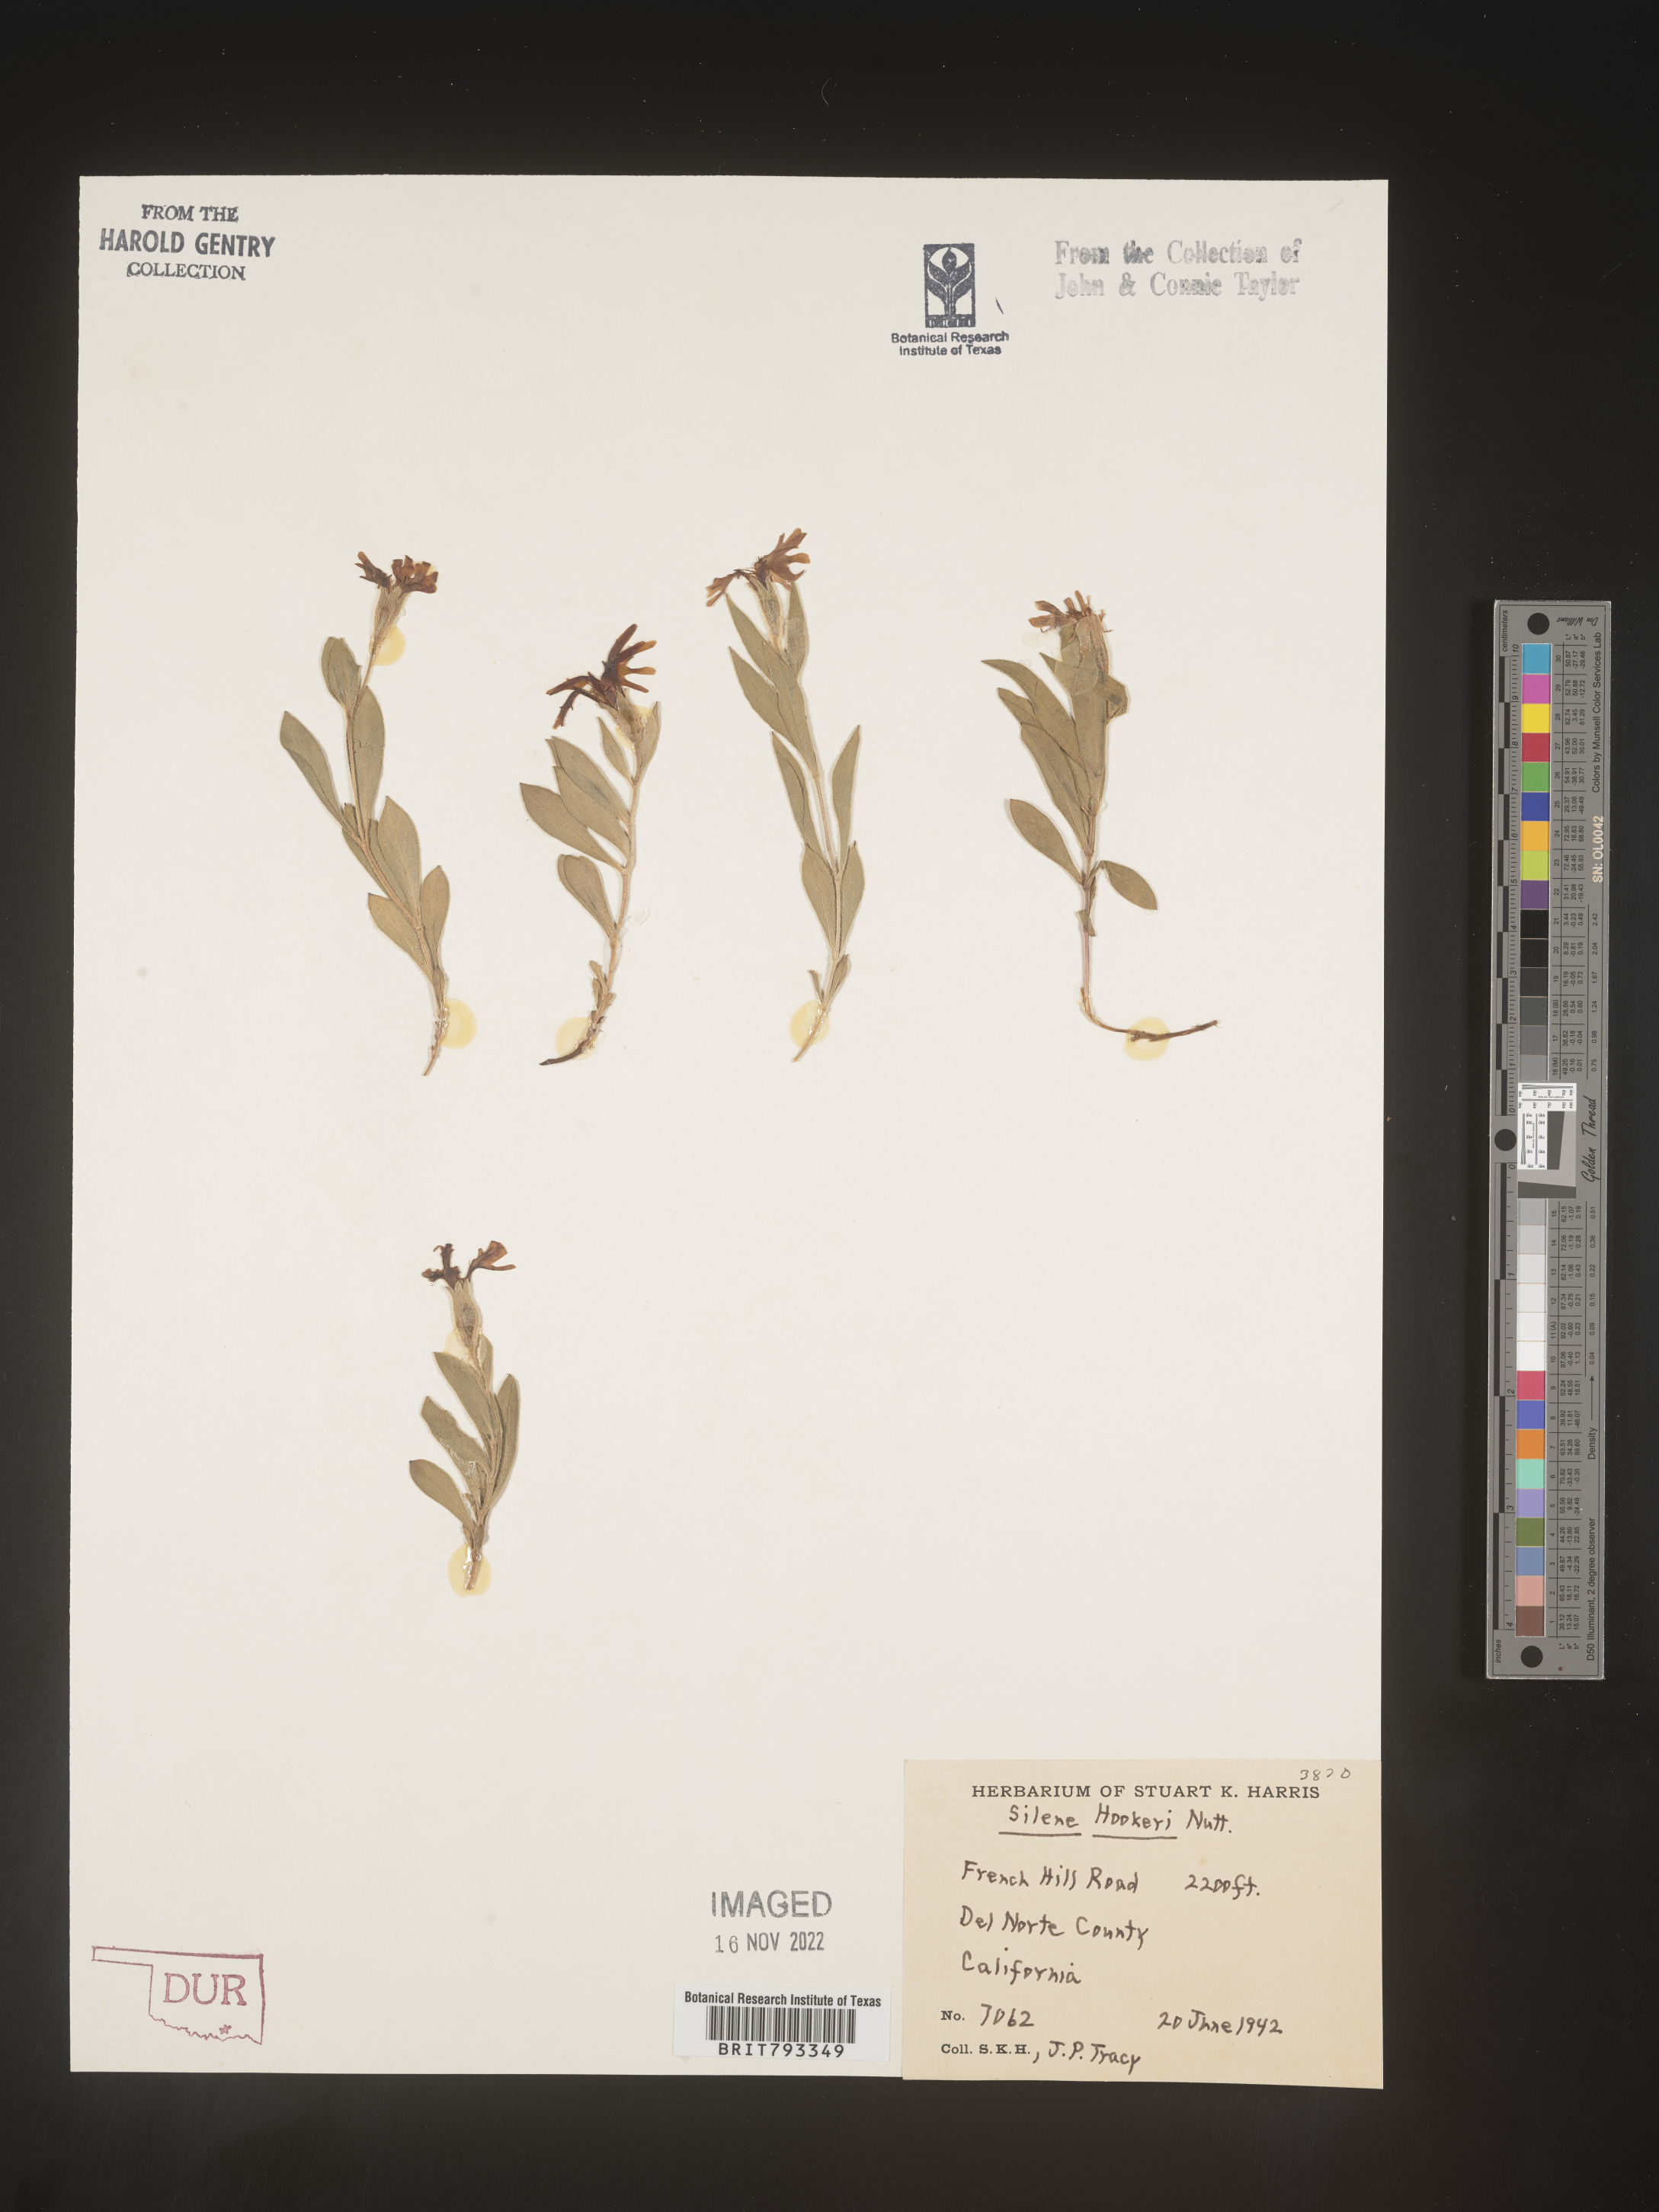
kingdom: Plantae
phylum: Tracheophyta
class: Magnoliopsida
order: Caryophyllales
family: Caryophyllaceae
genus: Silene
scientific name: Silene hookeri
